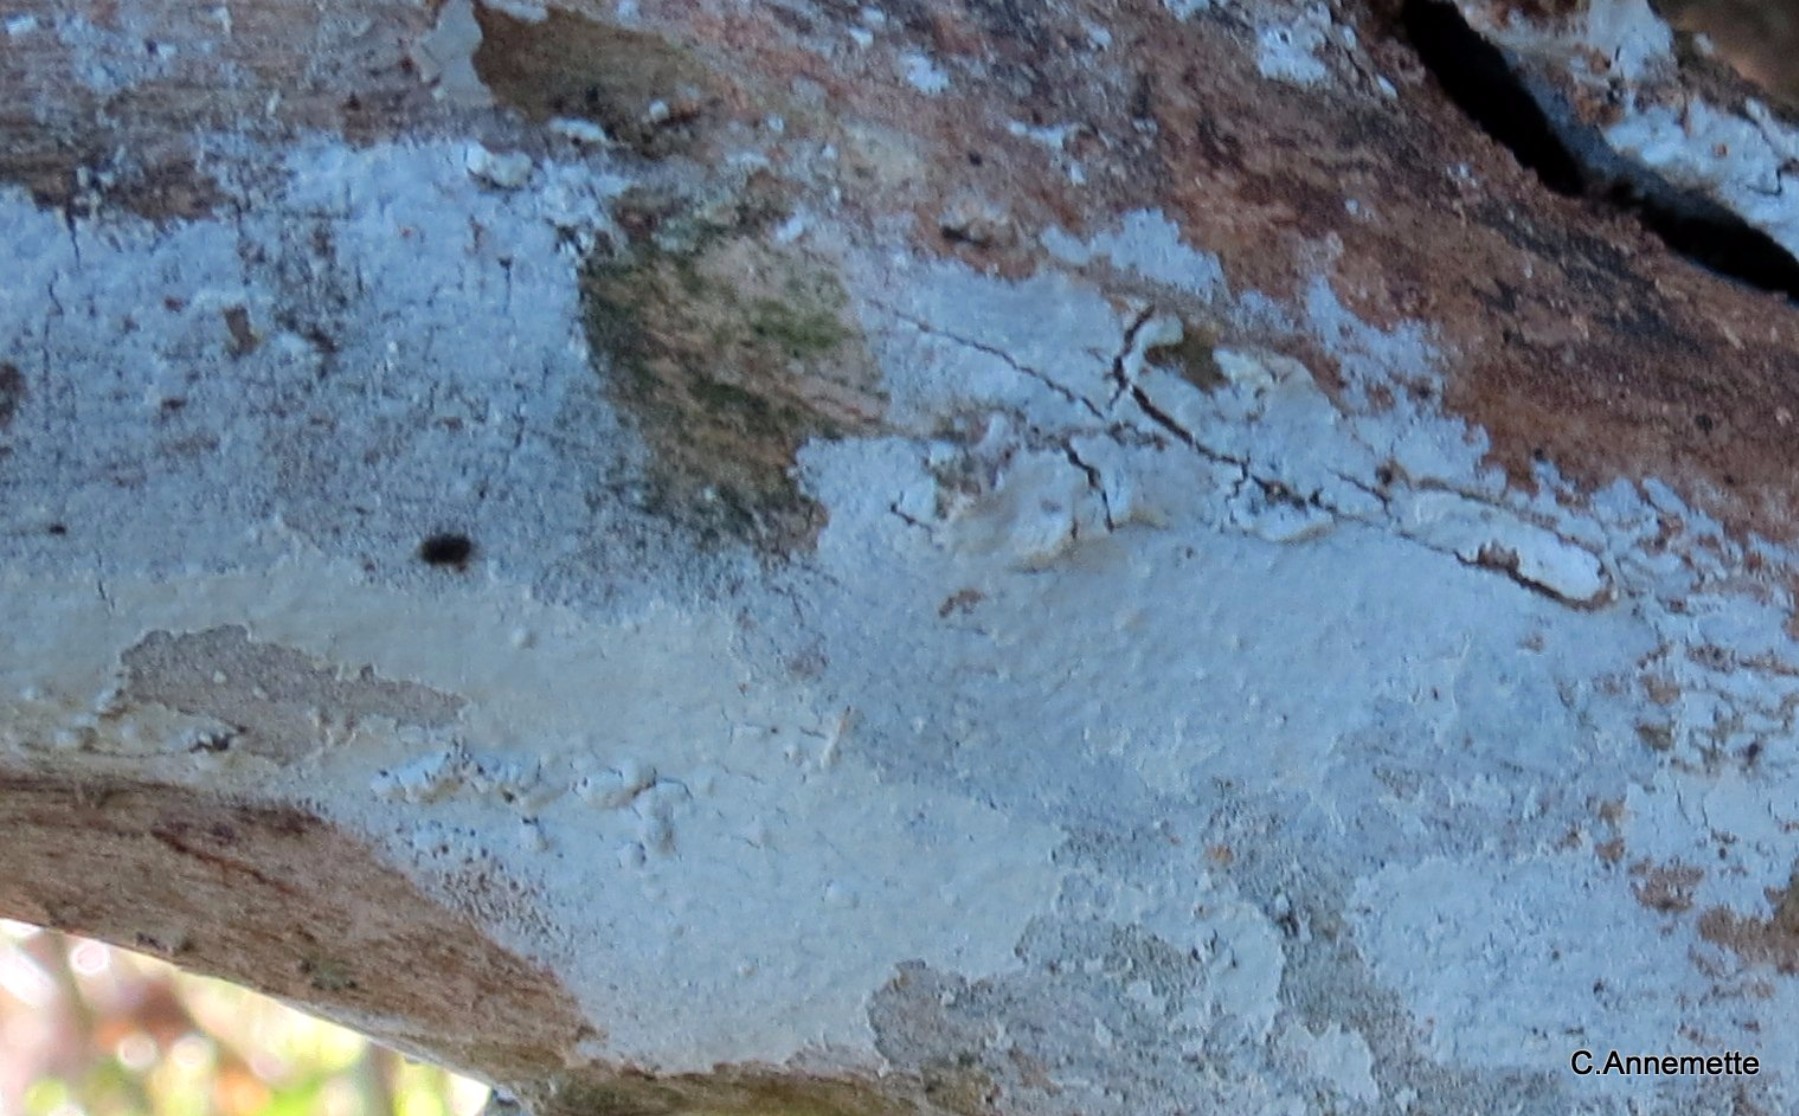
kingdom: Fungi
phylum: Basidiomycota
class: Agaricomycetes
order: Corticiales
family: Corticiaceae
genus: Lyomyces
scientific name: Lyomyces sambuci
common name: almindelig hyldehinde
